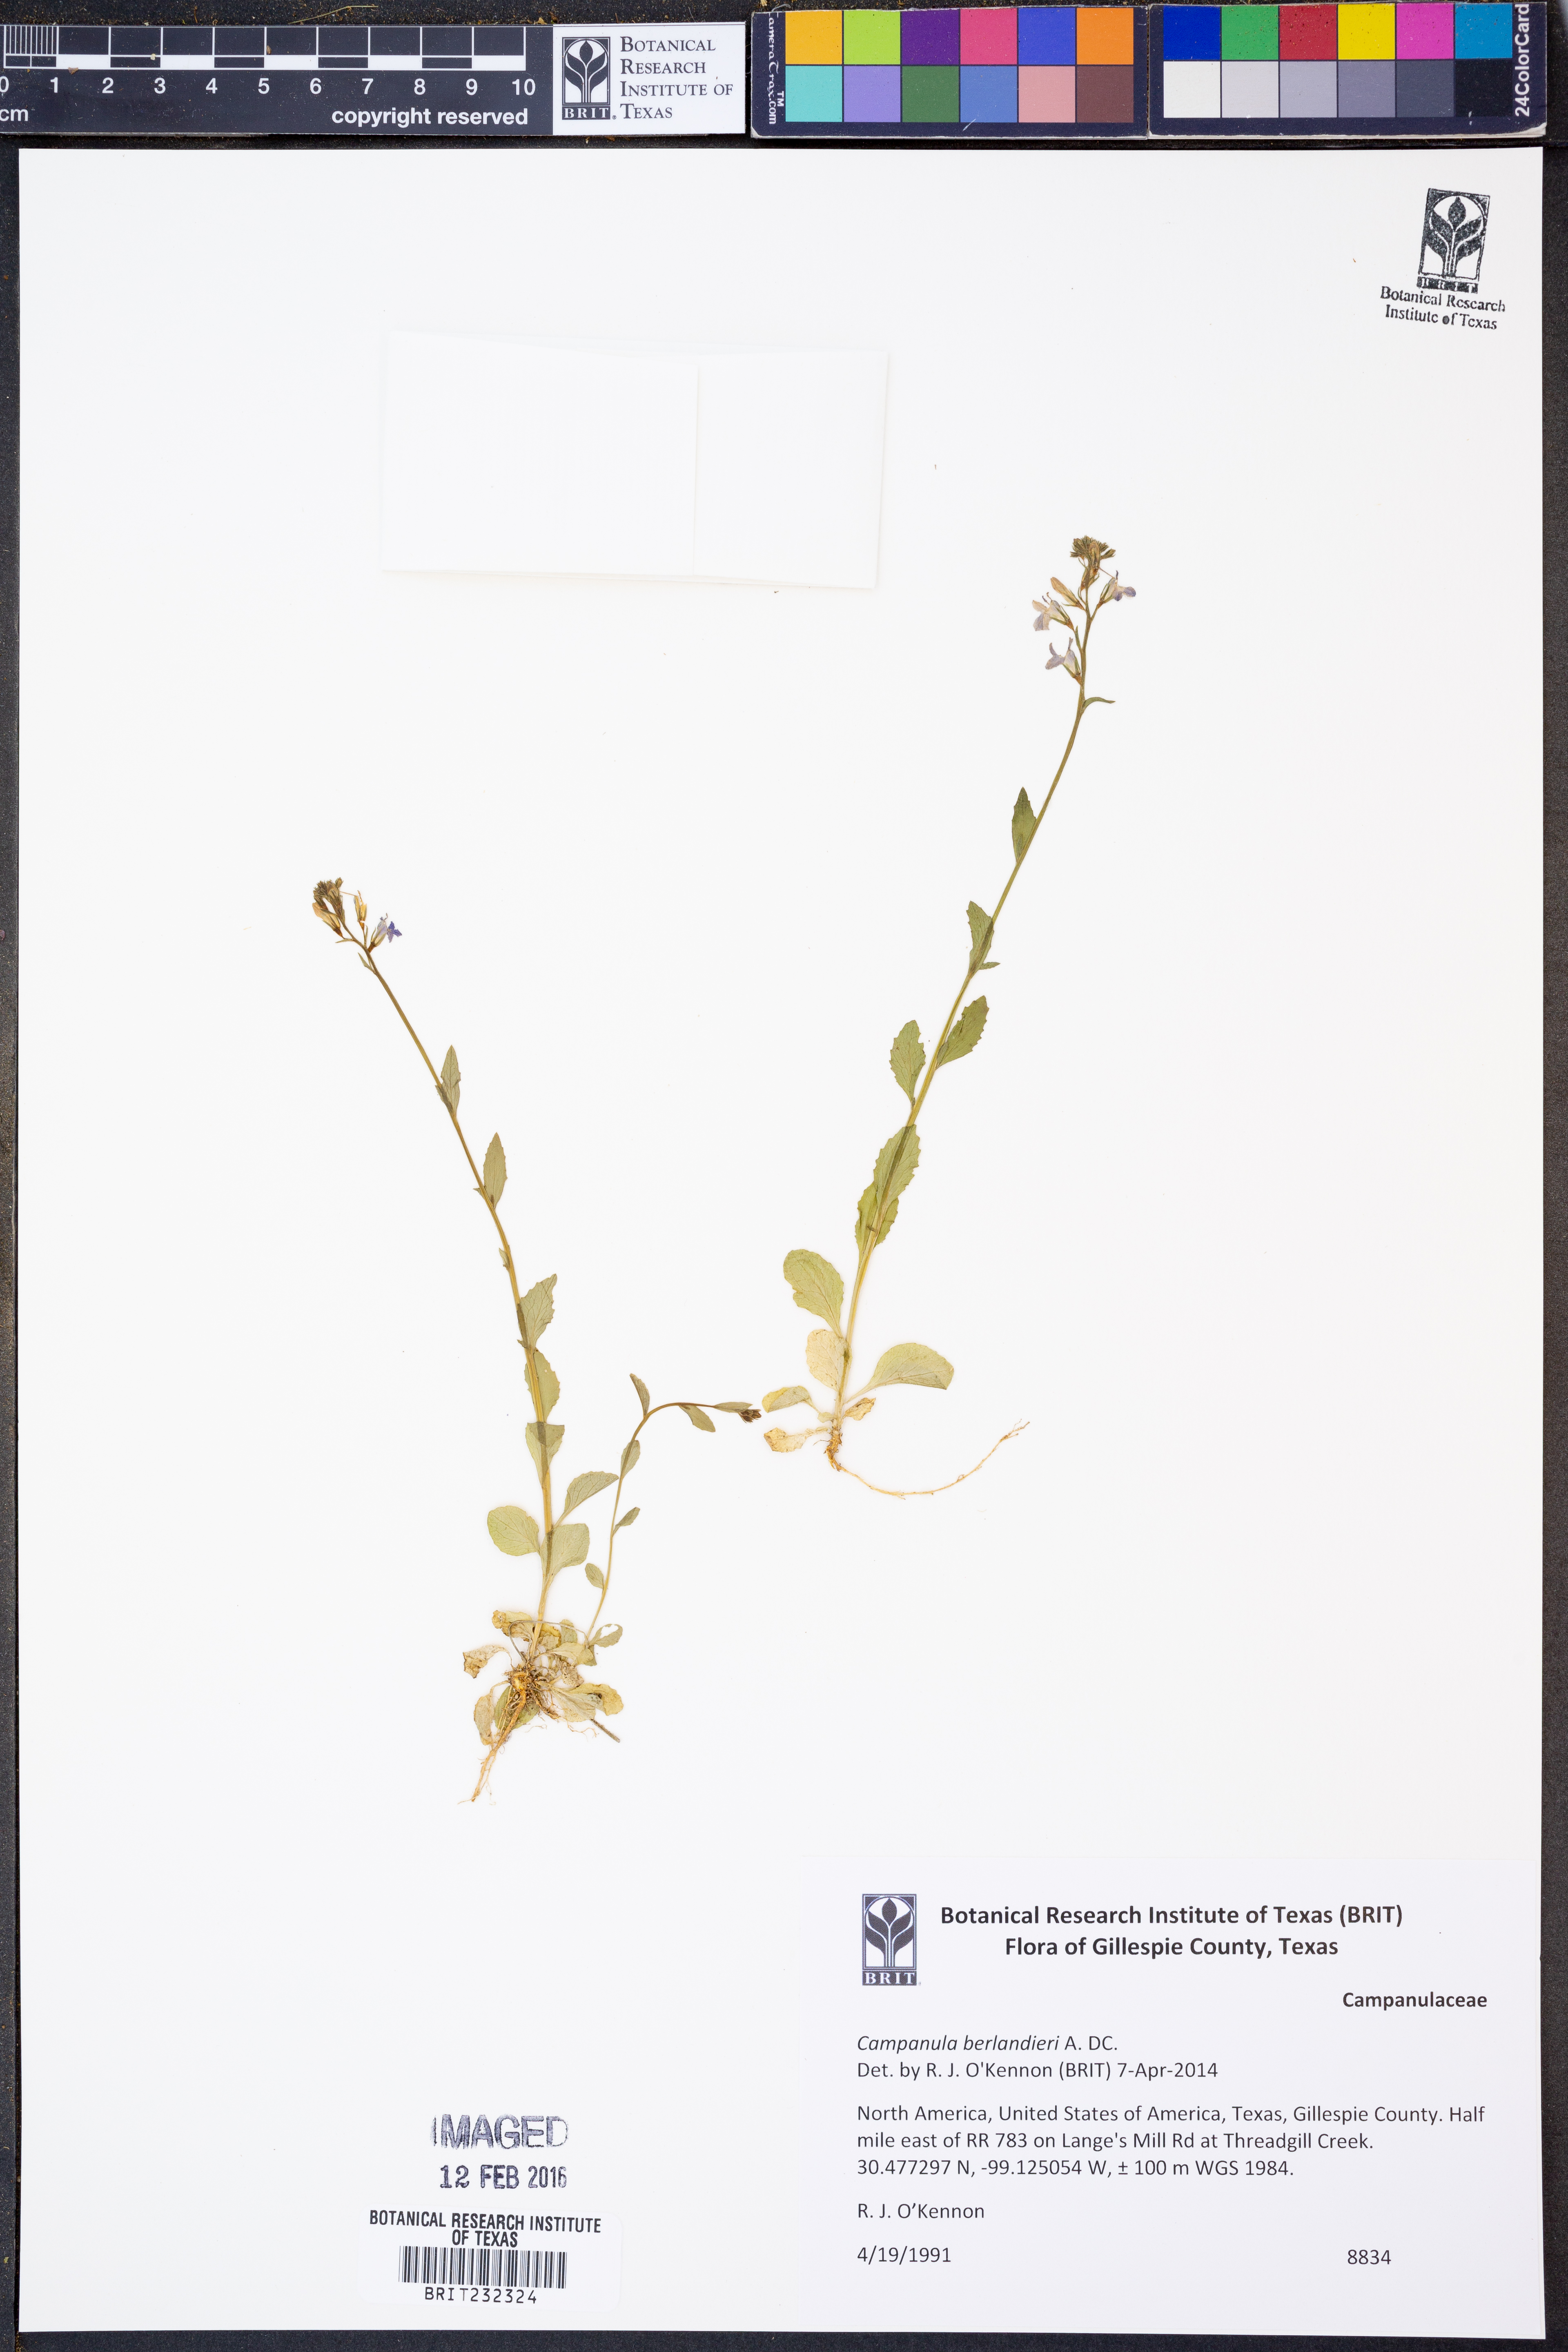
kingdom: Plantae
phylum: Tracheophyta
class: Magnoliopsida
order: Asterales
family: Campanulaceae
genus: Lobelia
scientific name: Lobelia
